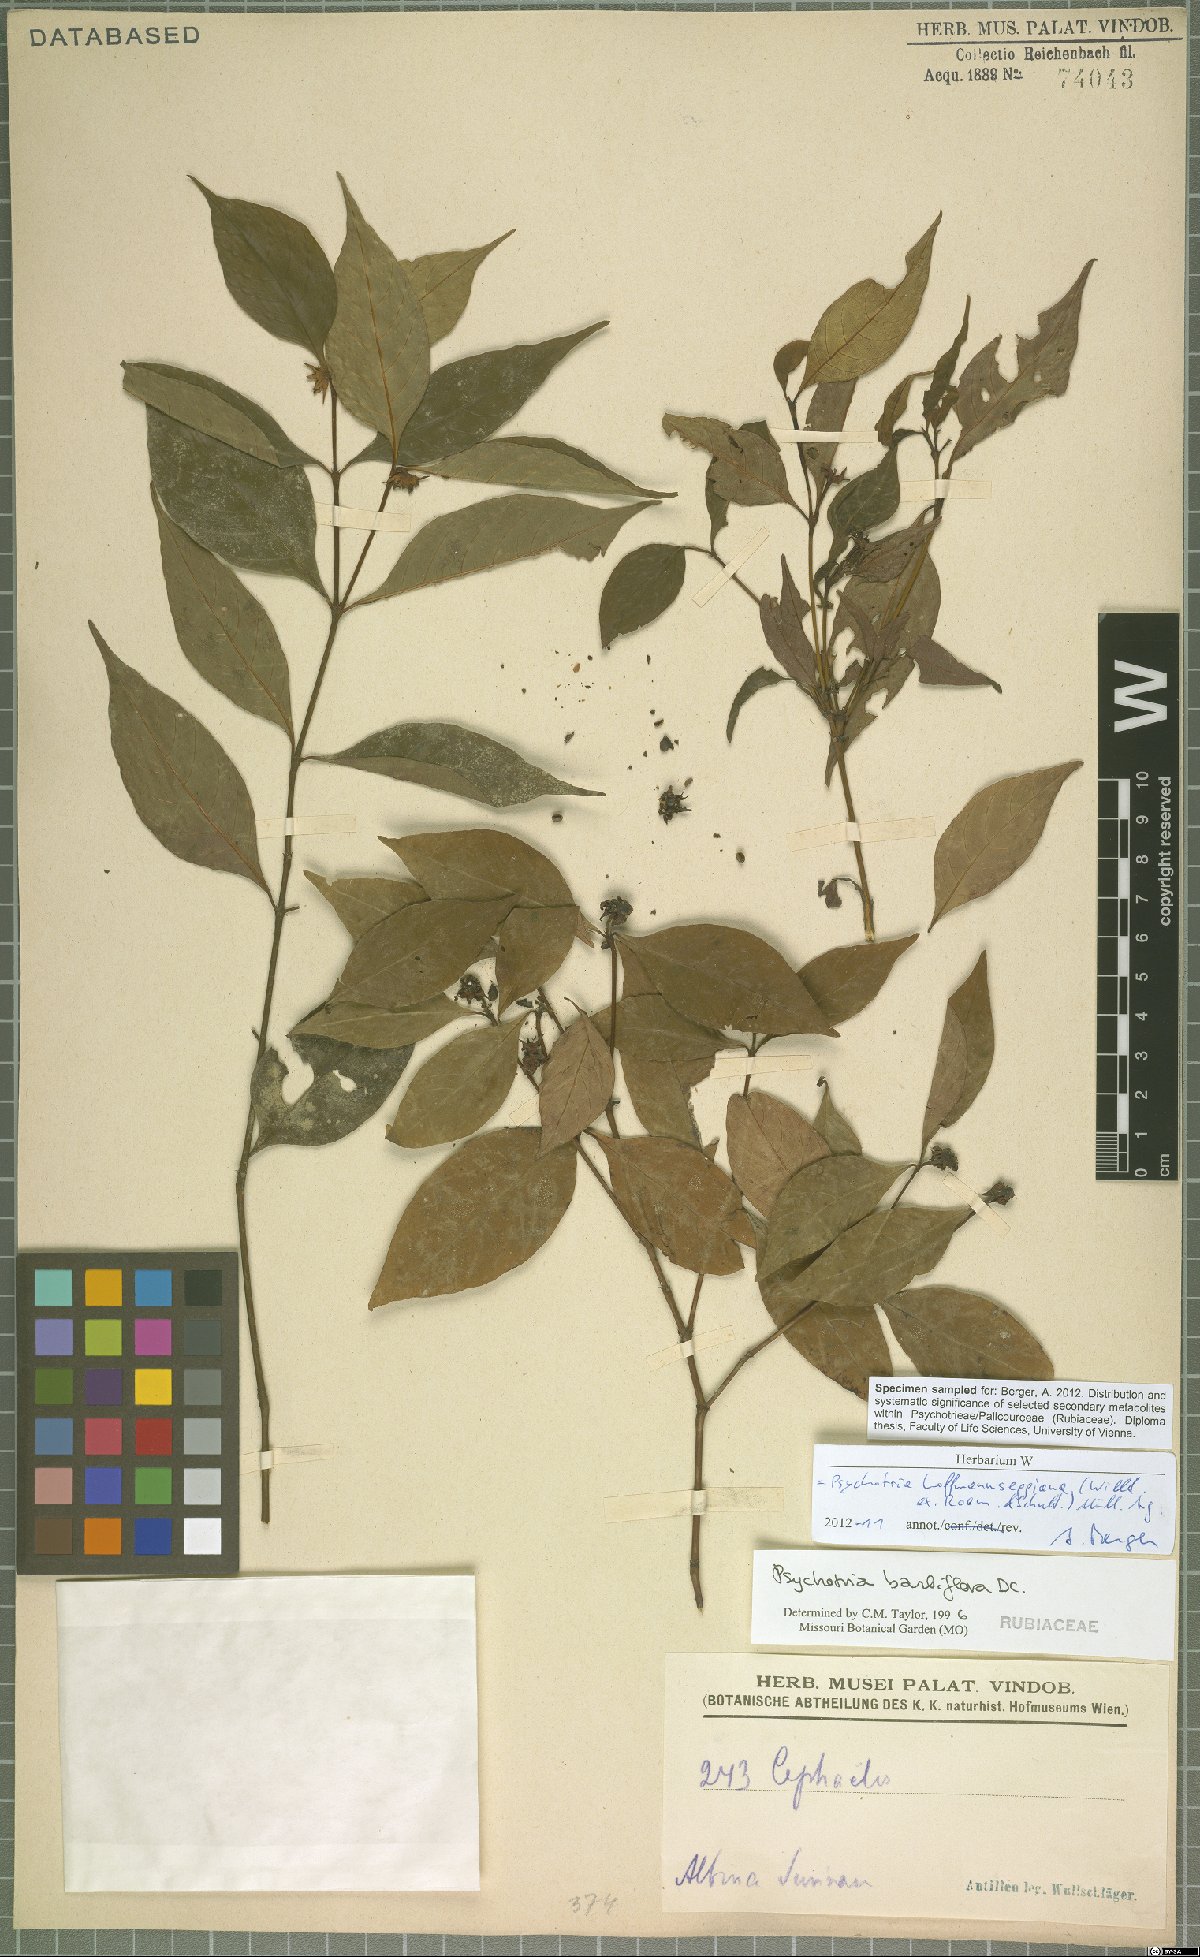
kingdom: Plantae
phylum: Tracheophyta
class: Magnoliopsida
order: Gentianales
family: Rubiaceae
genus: Palicourea
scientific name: Palicourea hoffmannseggiana
